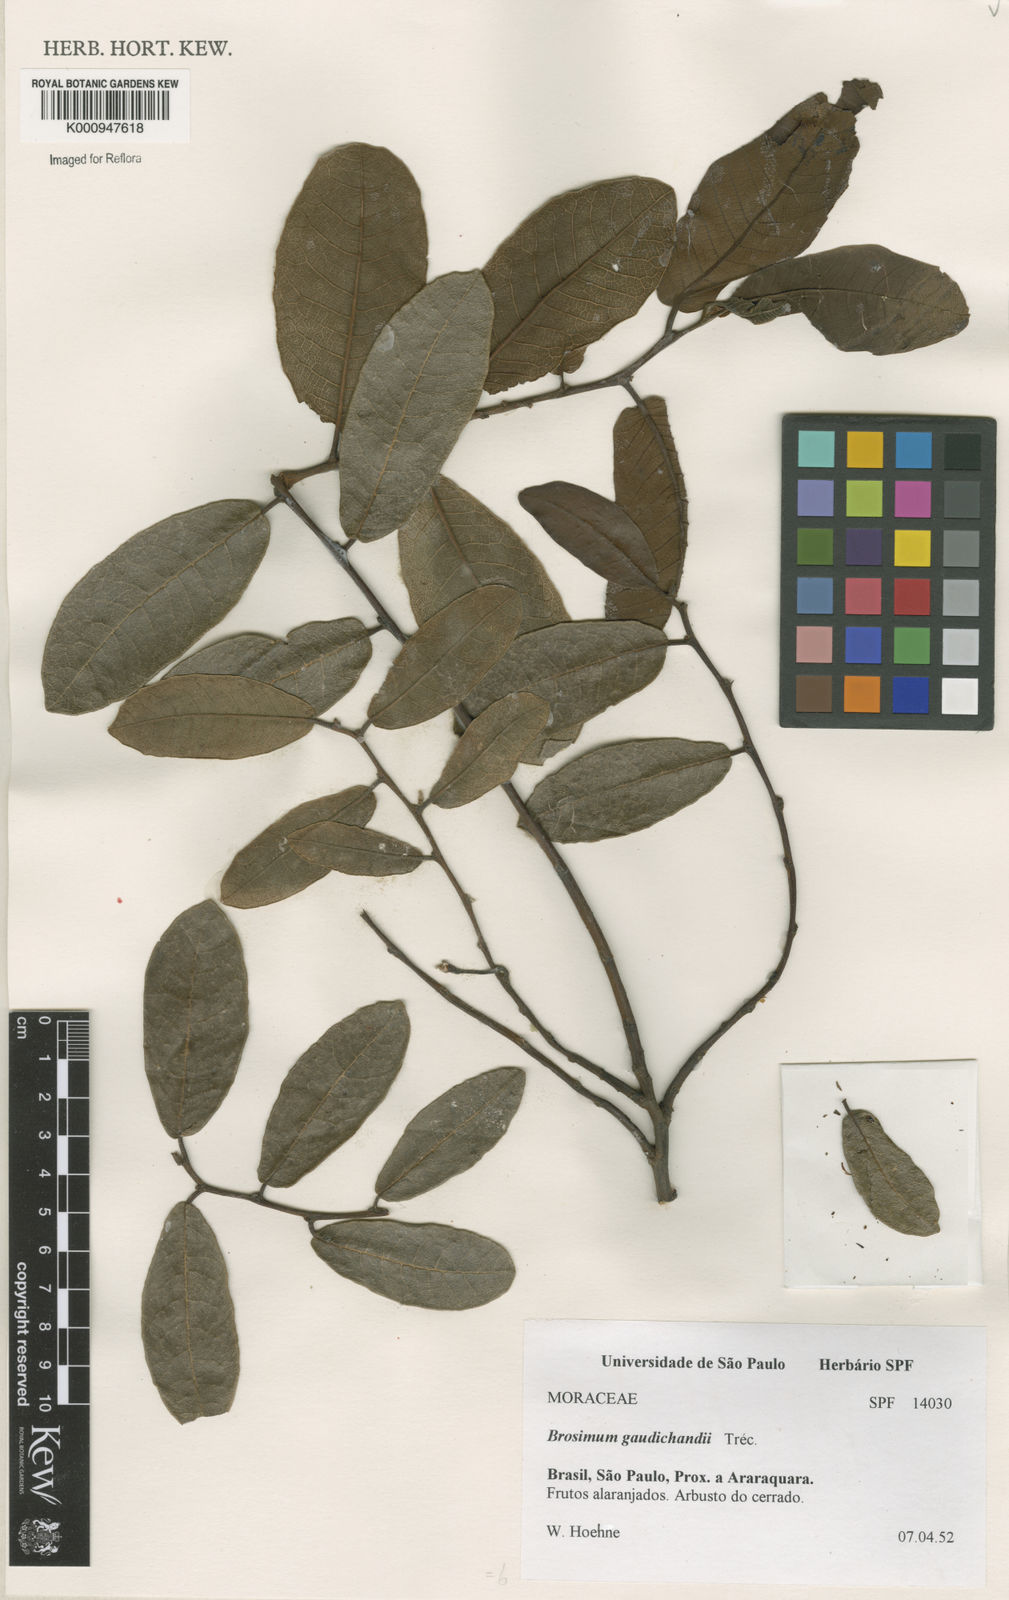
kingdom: Plantae
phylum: Tracheophyta
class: Magnoliopsida
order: Rosales
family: Moraceae
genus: Brosimum
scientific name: Brosimum
